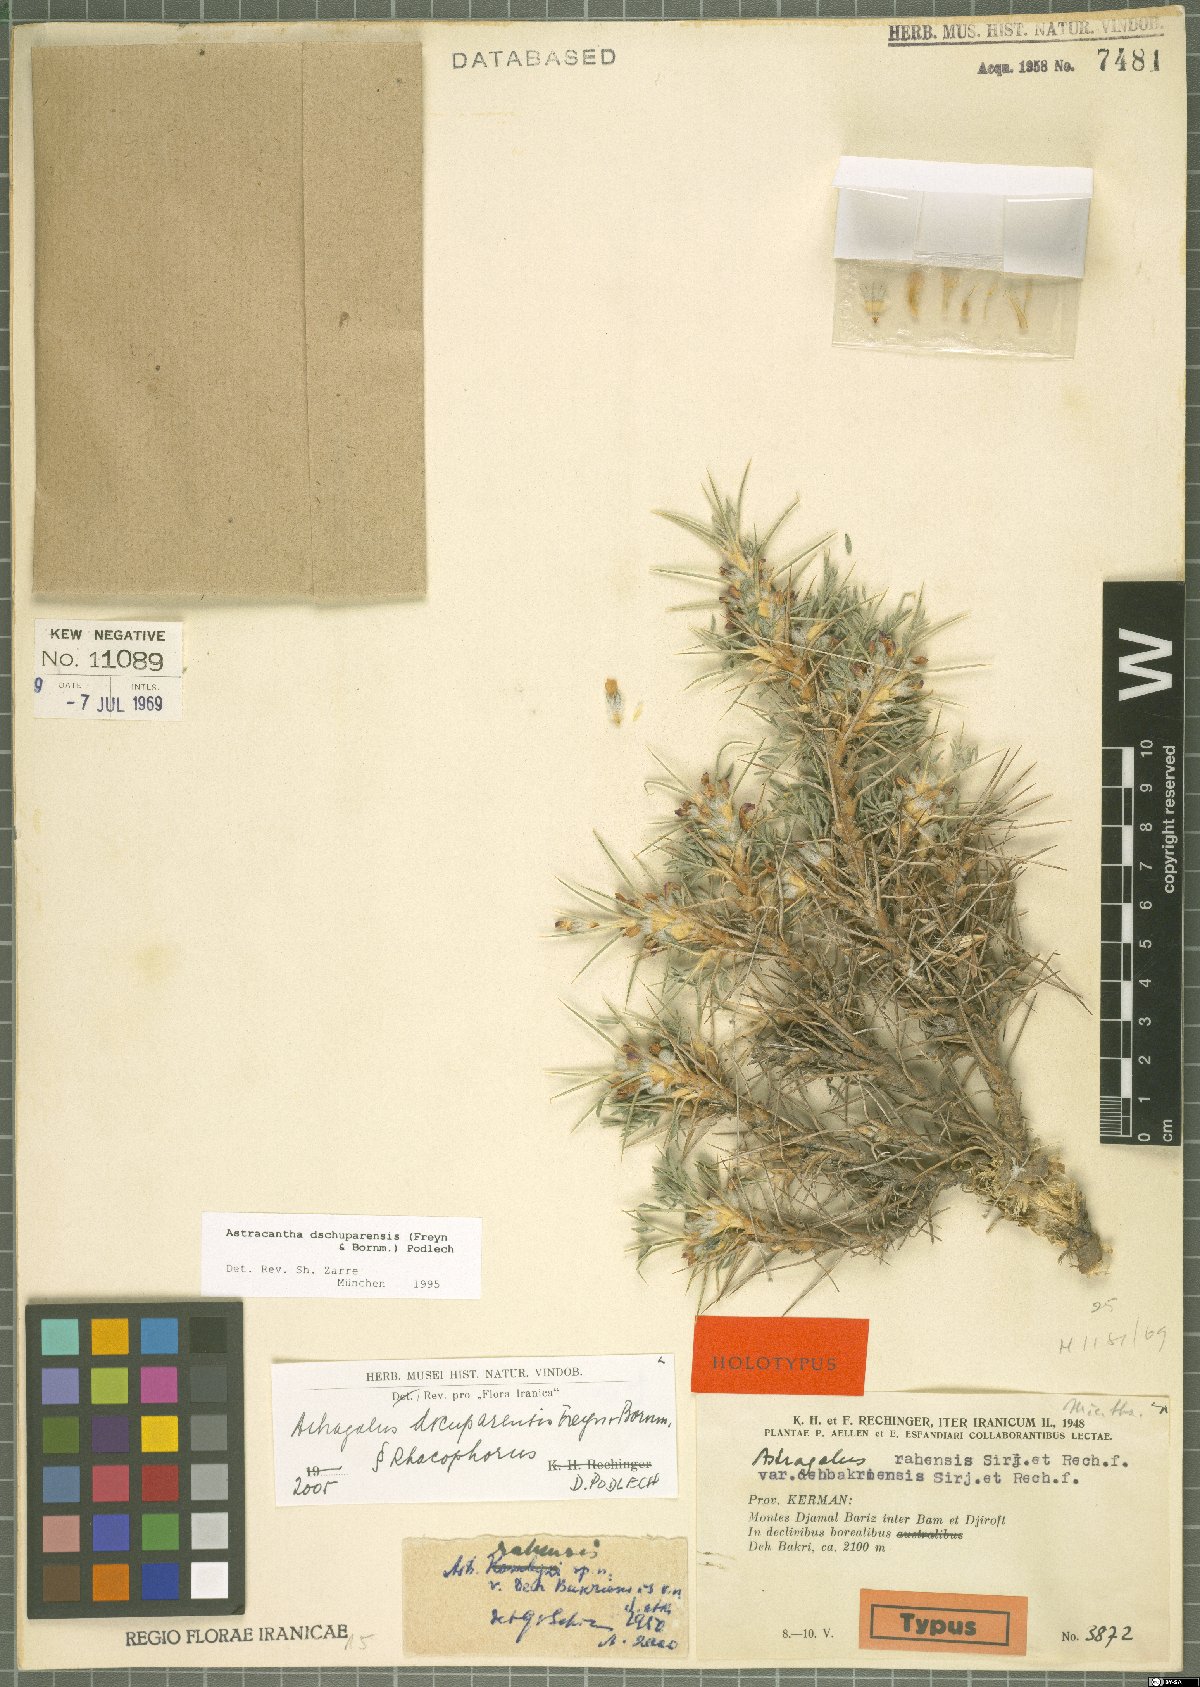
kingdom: Plantae
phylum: Tracheophyta
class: Magnoliopsida
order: Fabales
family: Fabaceae
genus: Astragalus
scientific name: Astragalus dschuparensis
